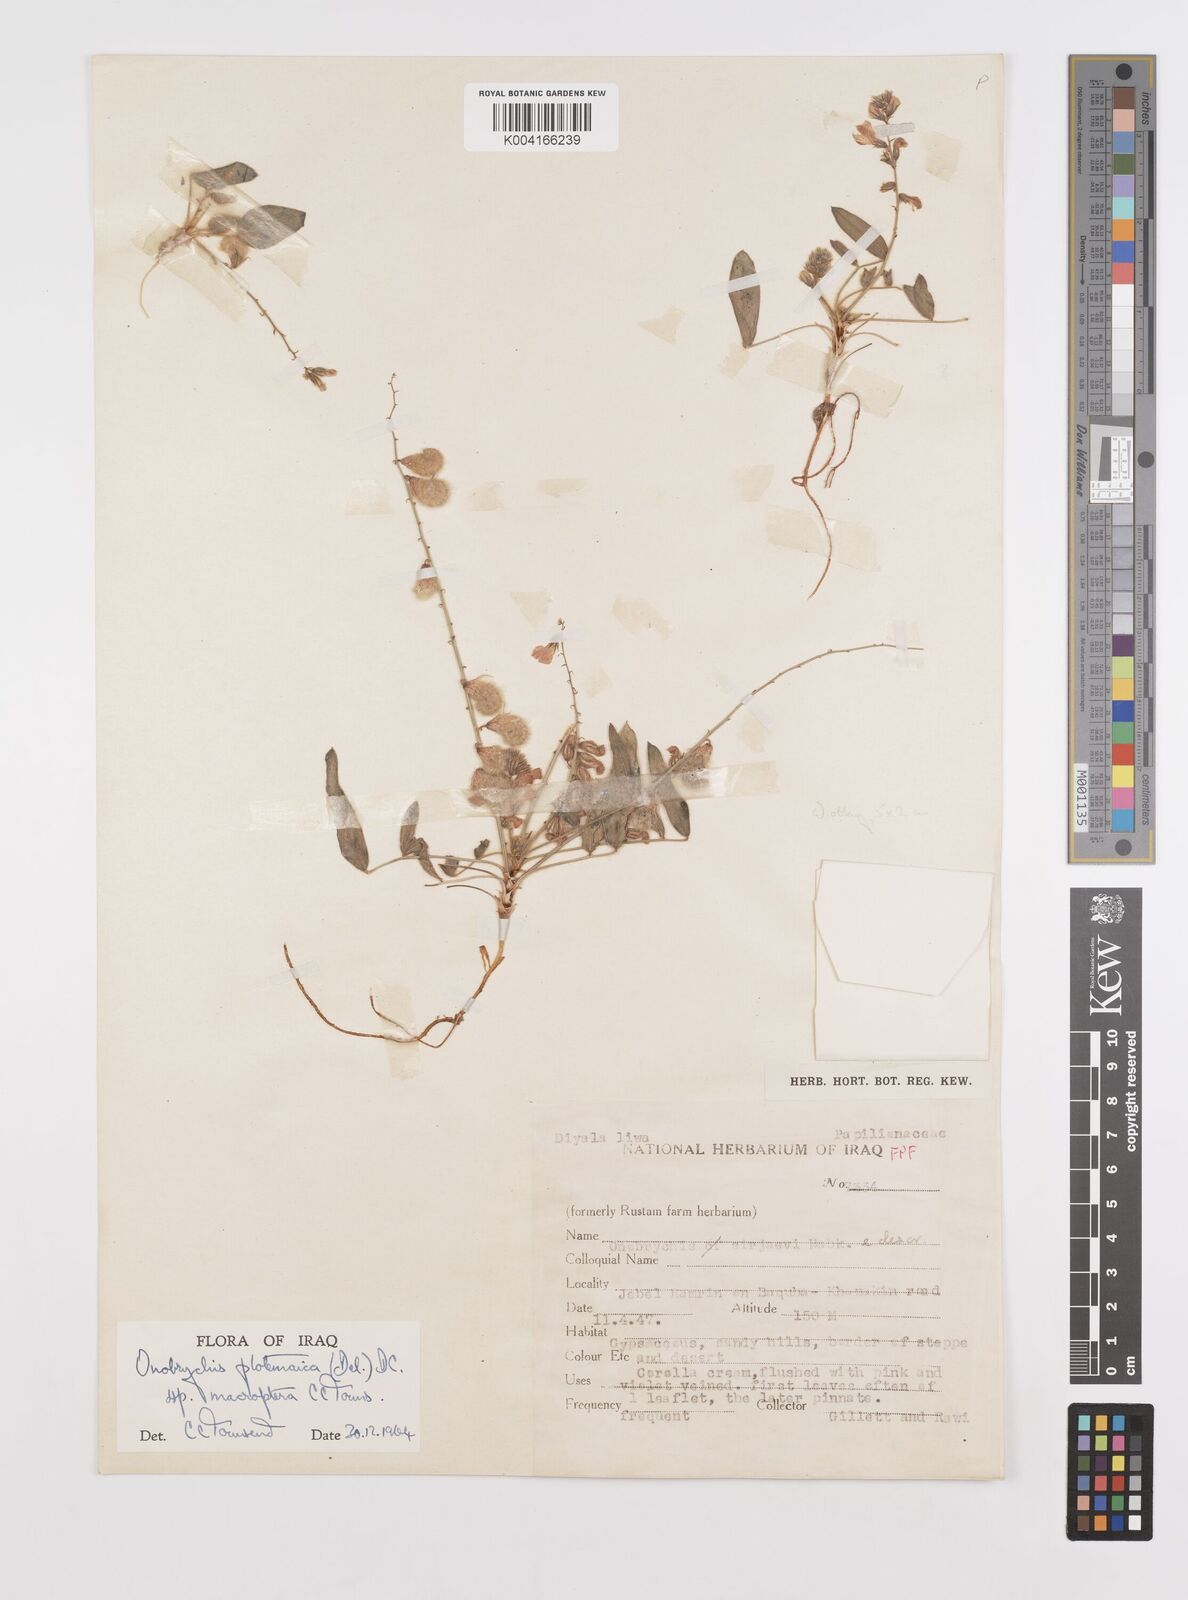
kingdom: Plantae
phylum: Tracheophyta
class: Magnoliopsida
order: Fabales
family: Fabaceae
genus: Onobrychis
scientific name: Onobrychis ptolemaica
